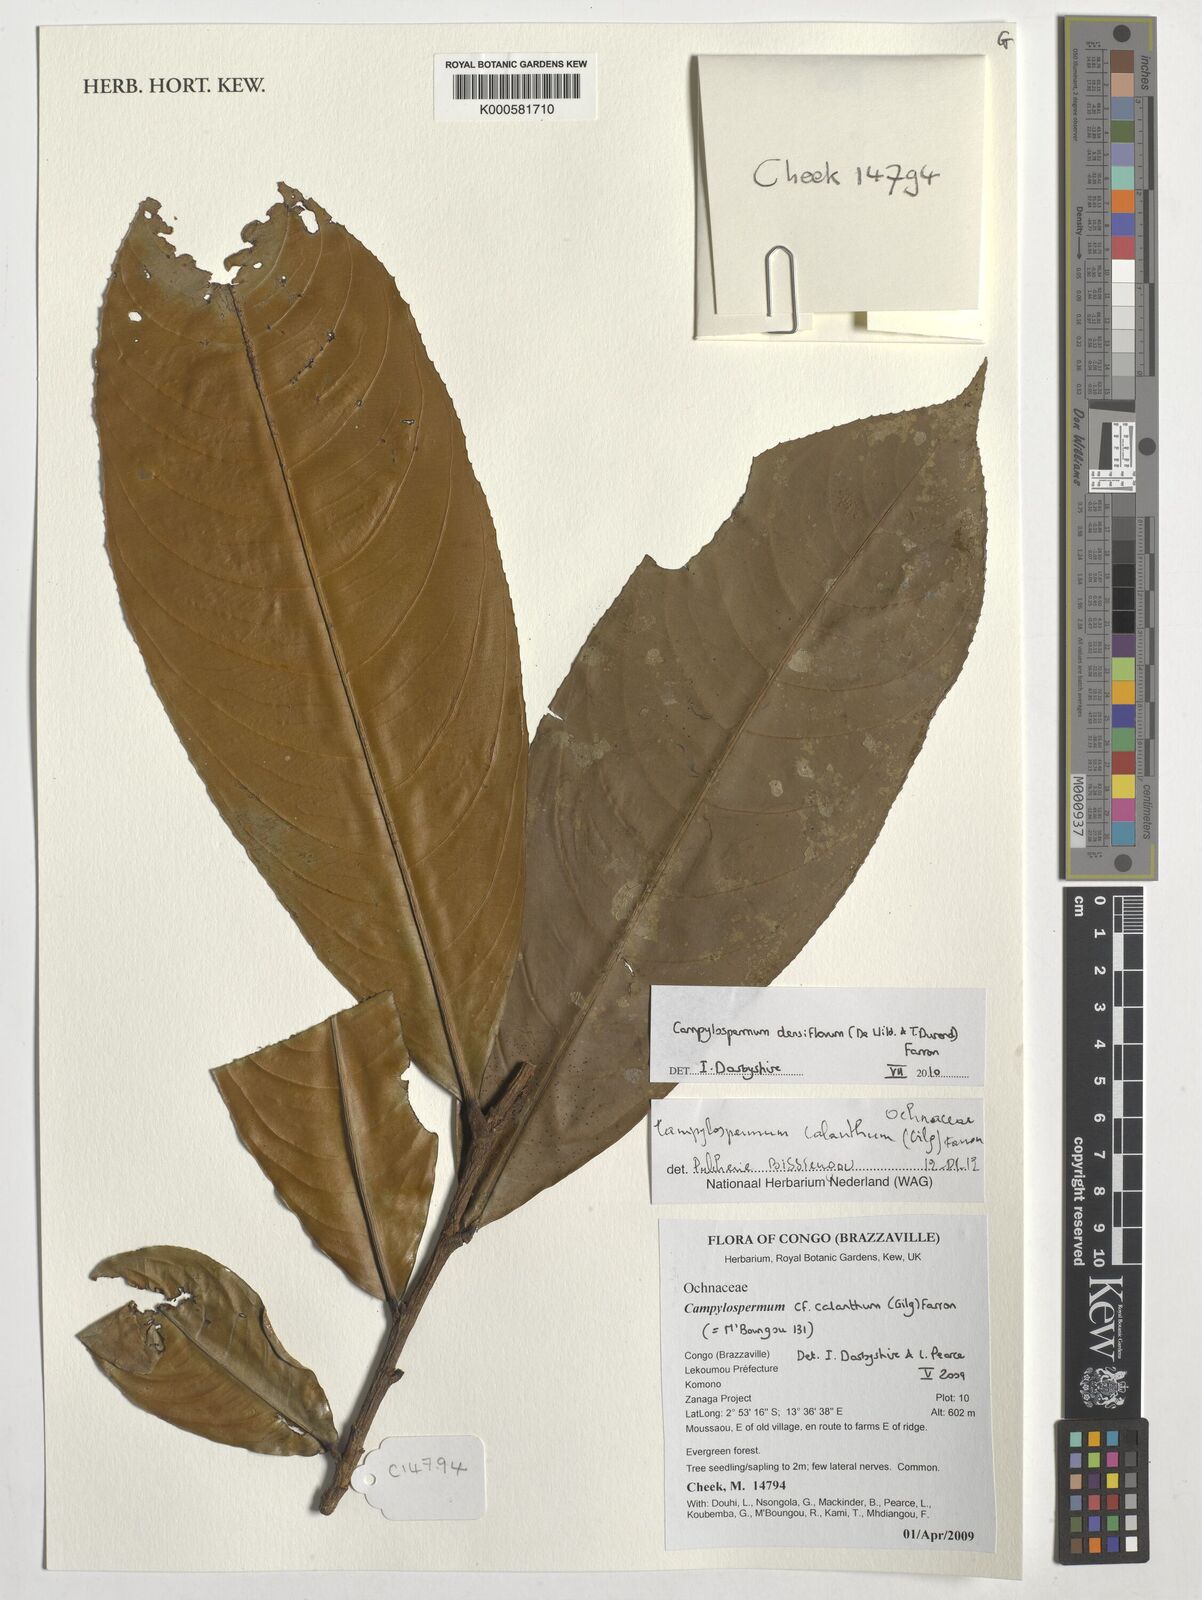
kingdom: Plantae
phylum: Tracheophyta
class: Magnoliopsida
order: Malpighiales
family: Ochnaceae
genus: Campylospermum
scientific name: Campylospermum calanthum
